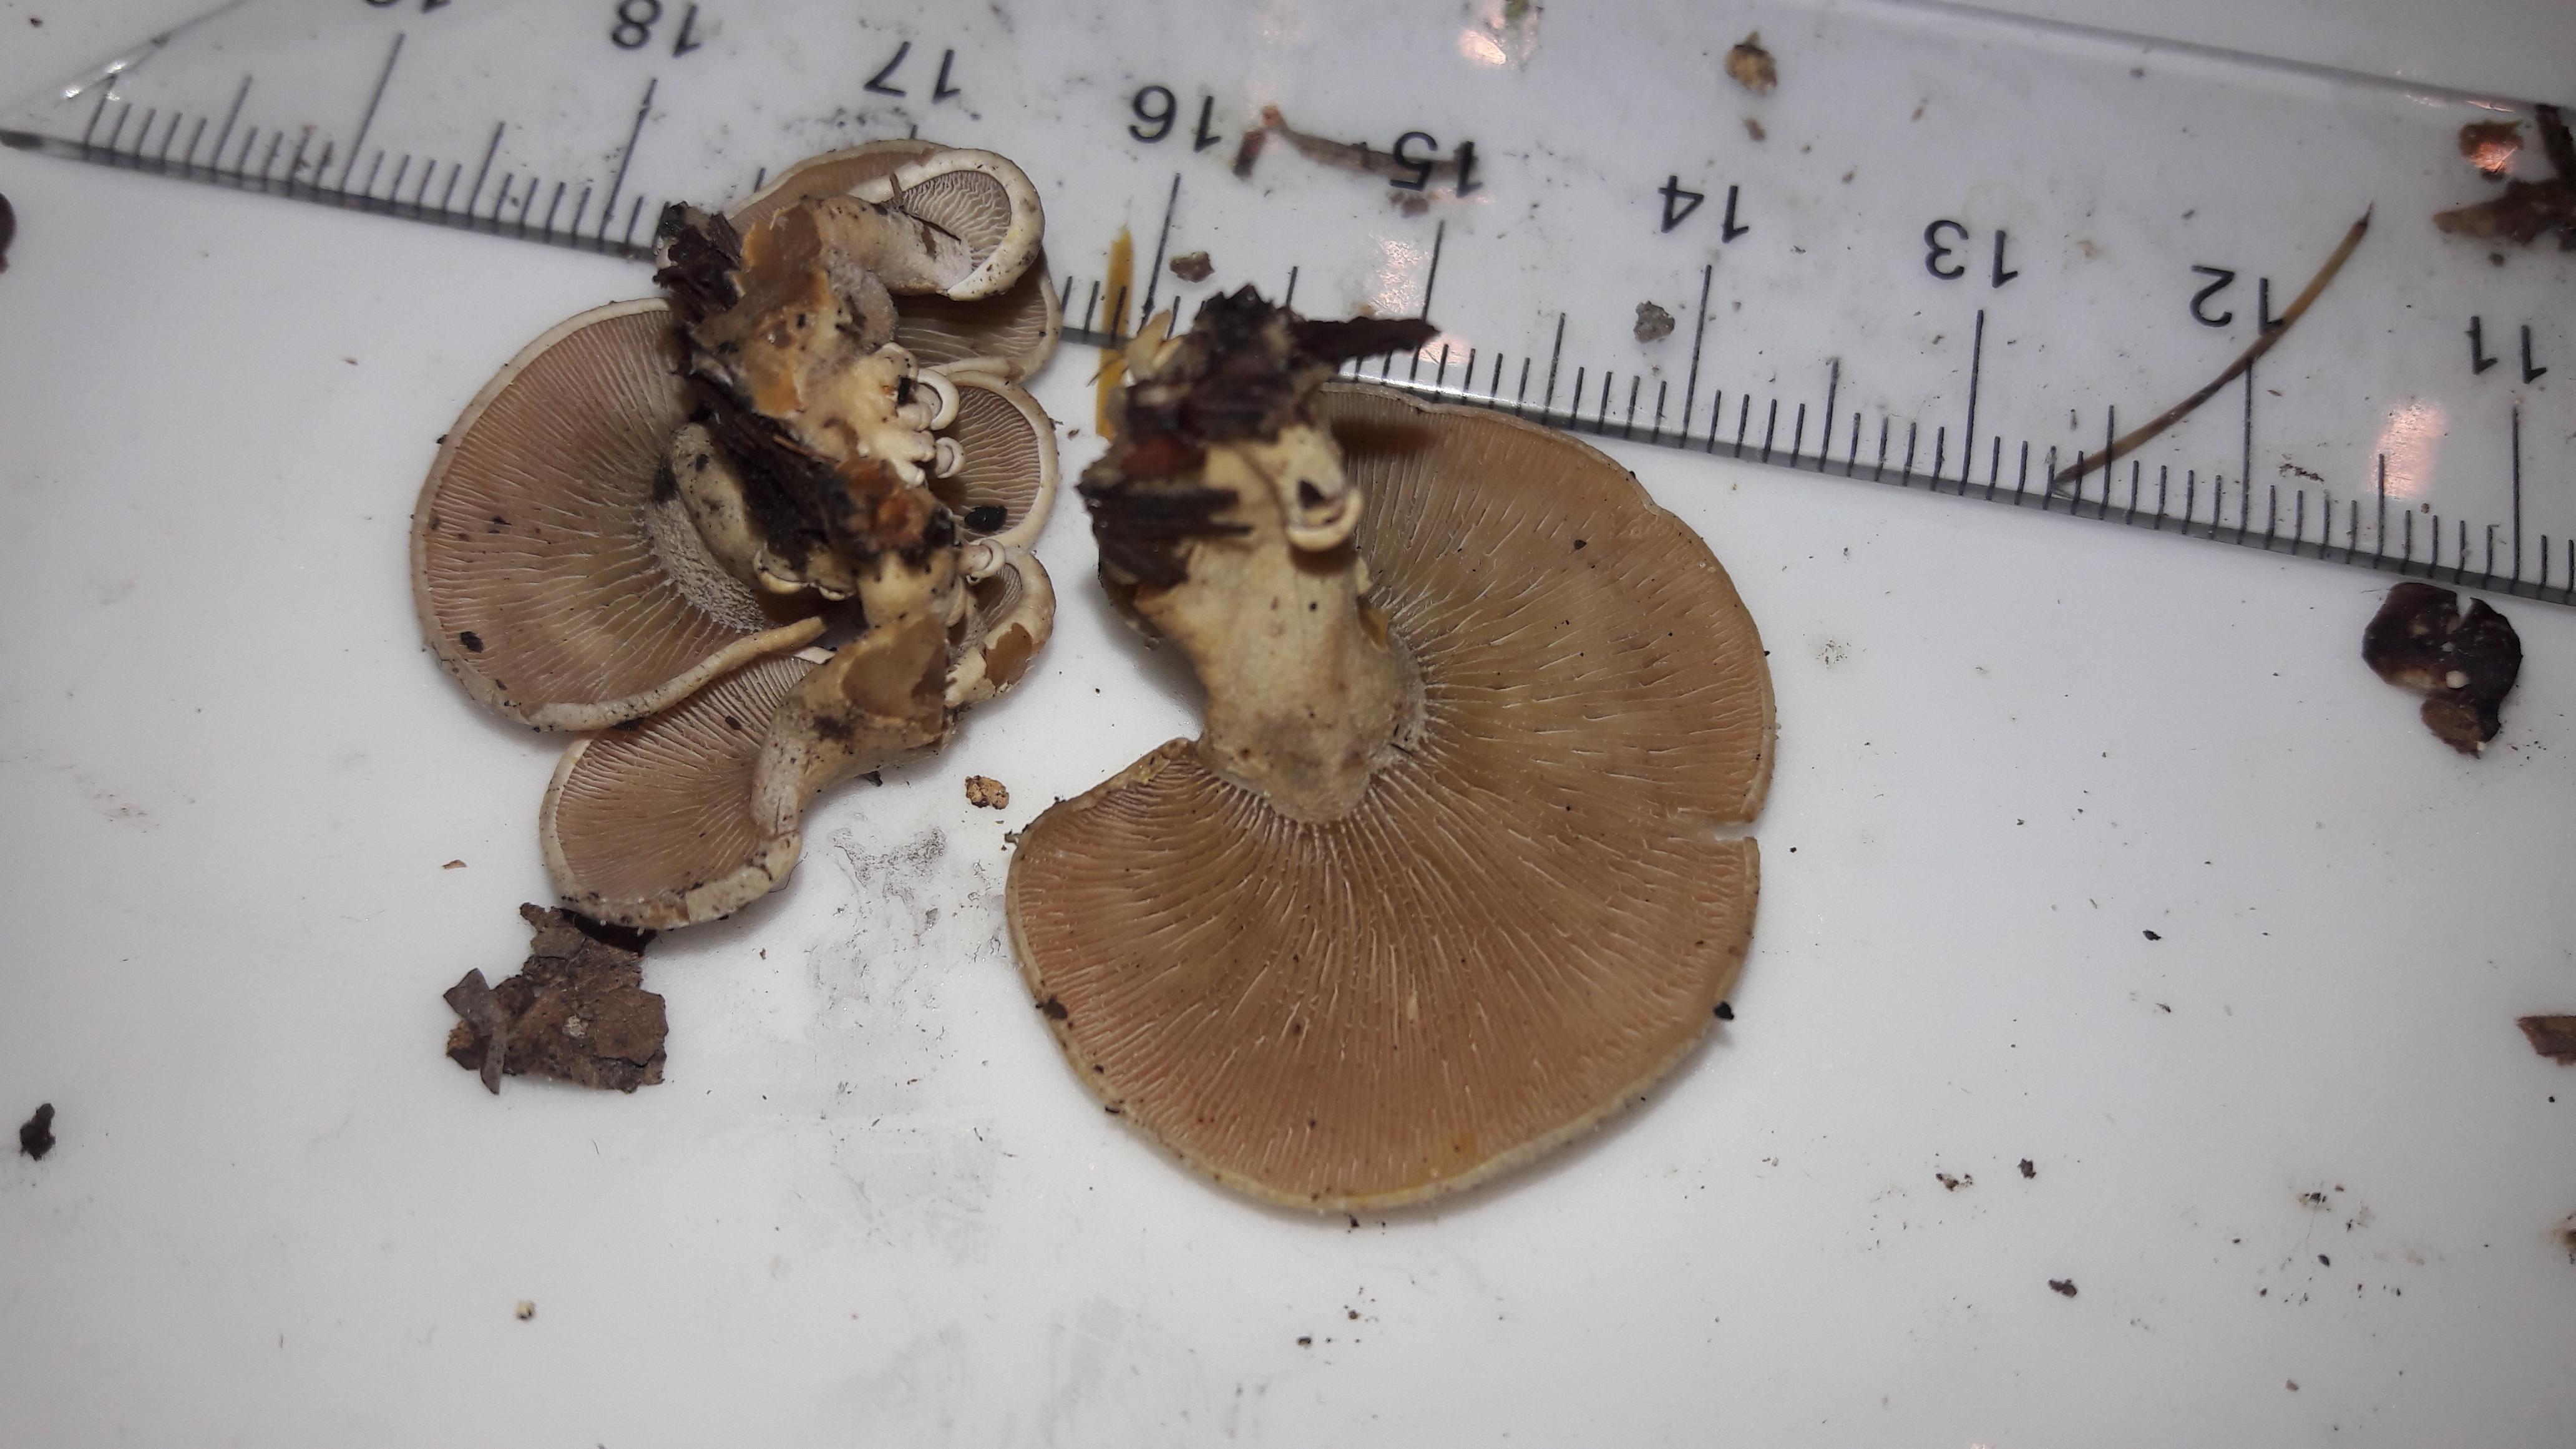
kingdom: Fungi
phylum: Basidiomycota
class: Agaricomycetes
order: Agaricales
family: Mycenaceae
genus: Panellus
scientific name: Panellus stipticus
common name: kliddet epaulethat
